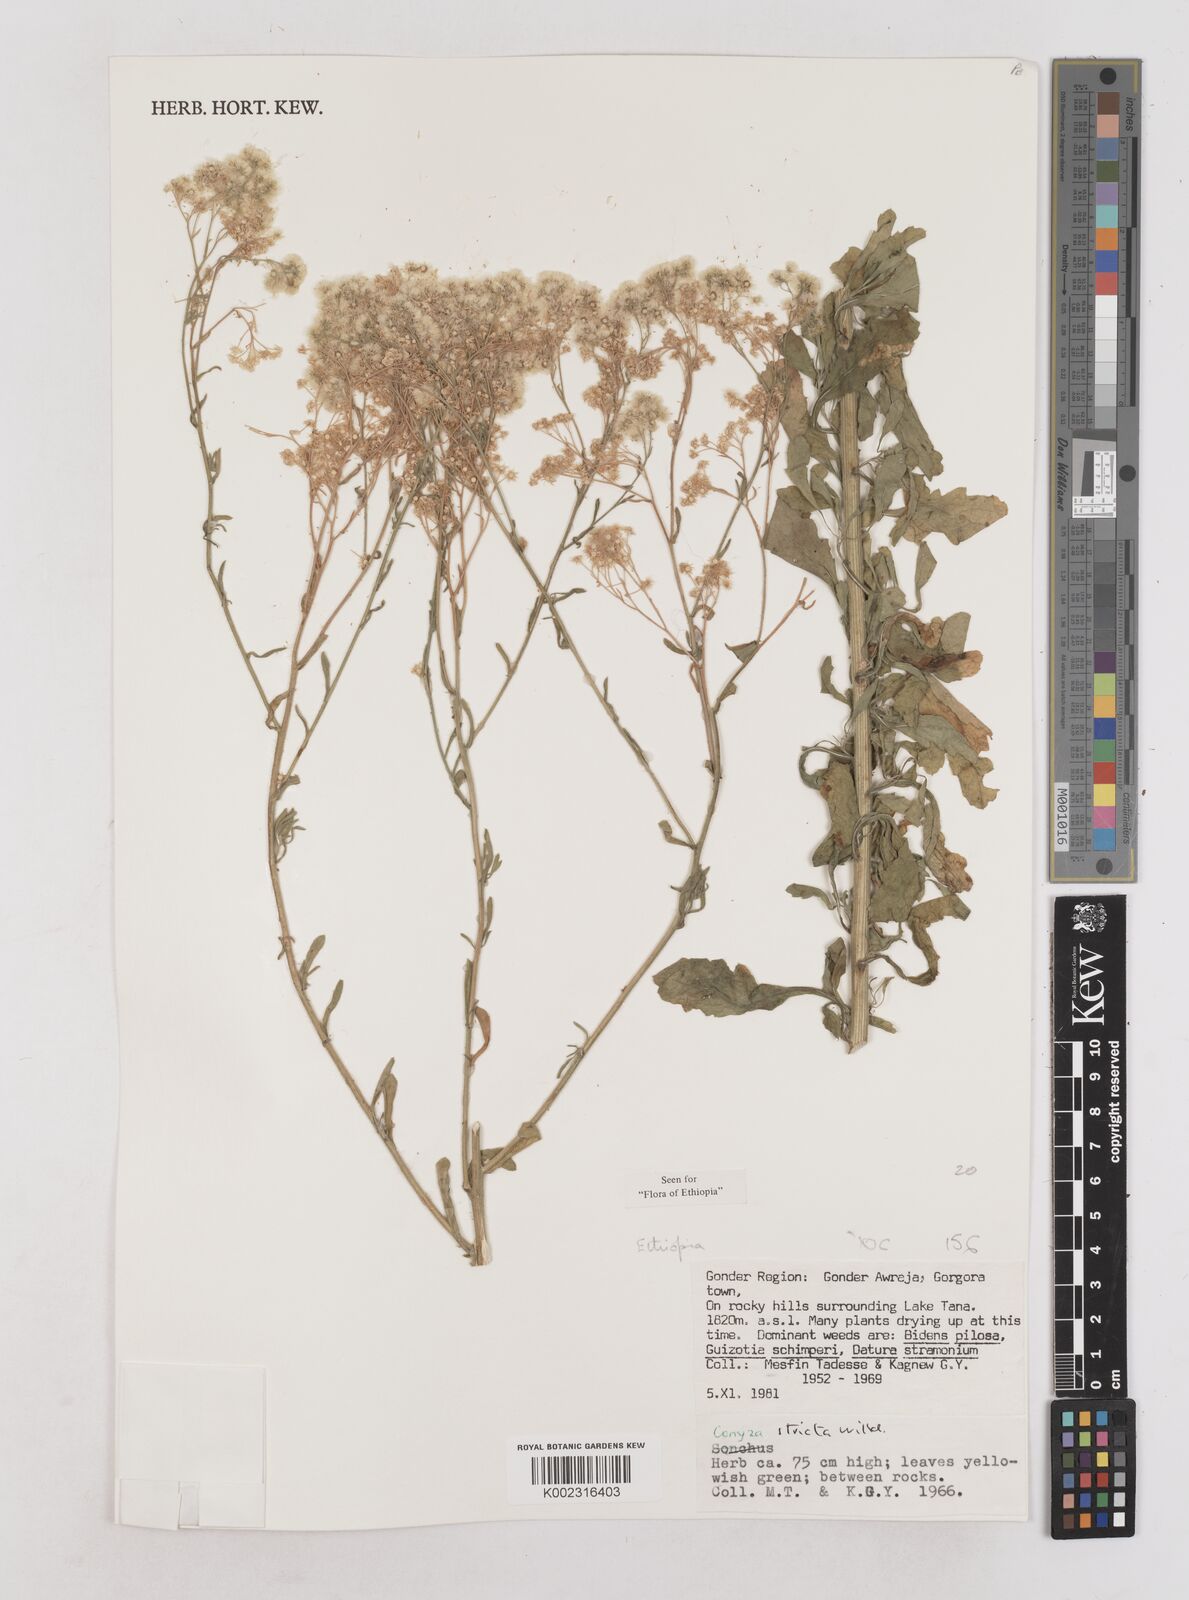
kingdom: Plantae
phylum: Tracheophyta
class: Magnoliopsida
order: Asterales
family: Asteraceae
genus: Nidorella
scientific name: Nidorella triloba
